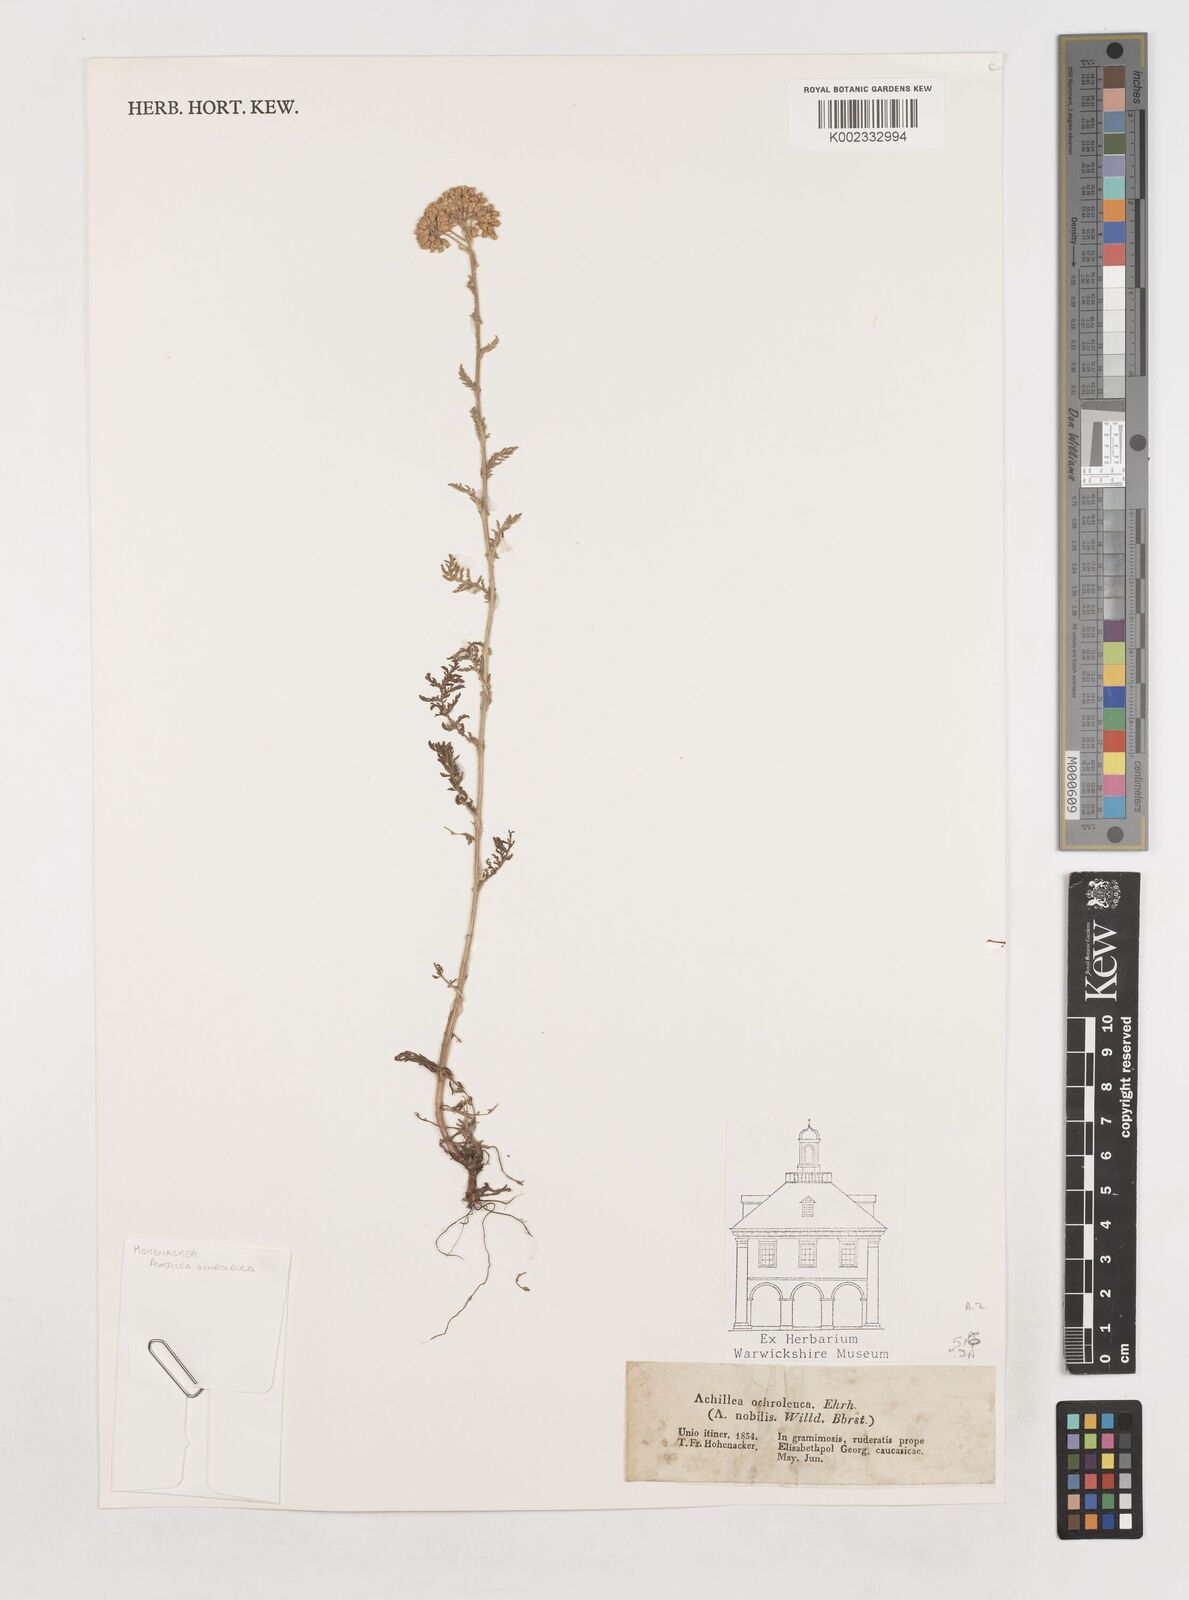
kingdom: Plantae
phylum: Tracheophyta
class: Magnoliopsida
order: Asterales
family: Asteraceae
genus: Achillea
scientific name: Achillea ochroleuca
